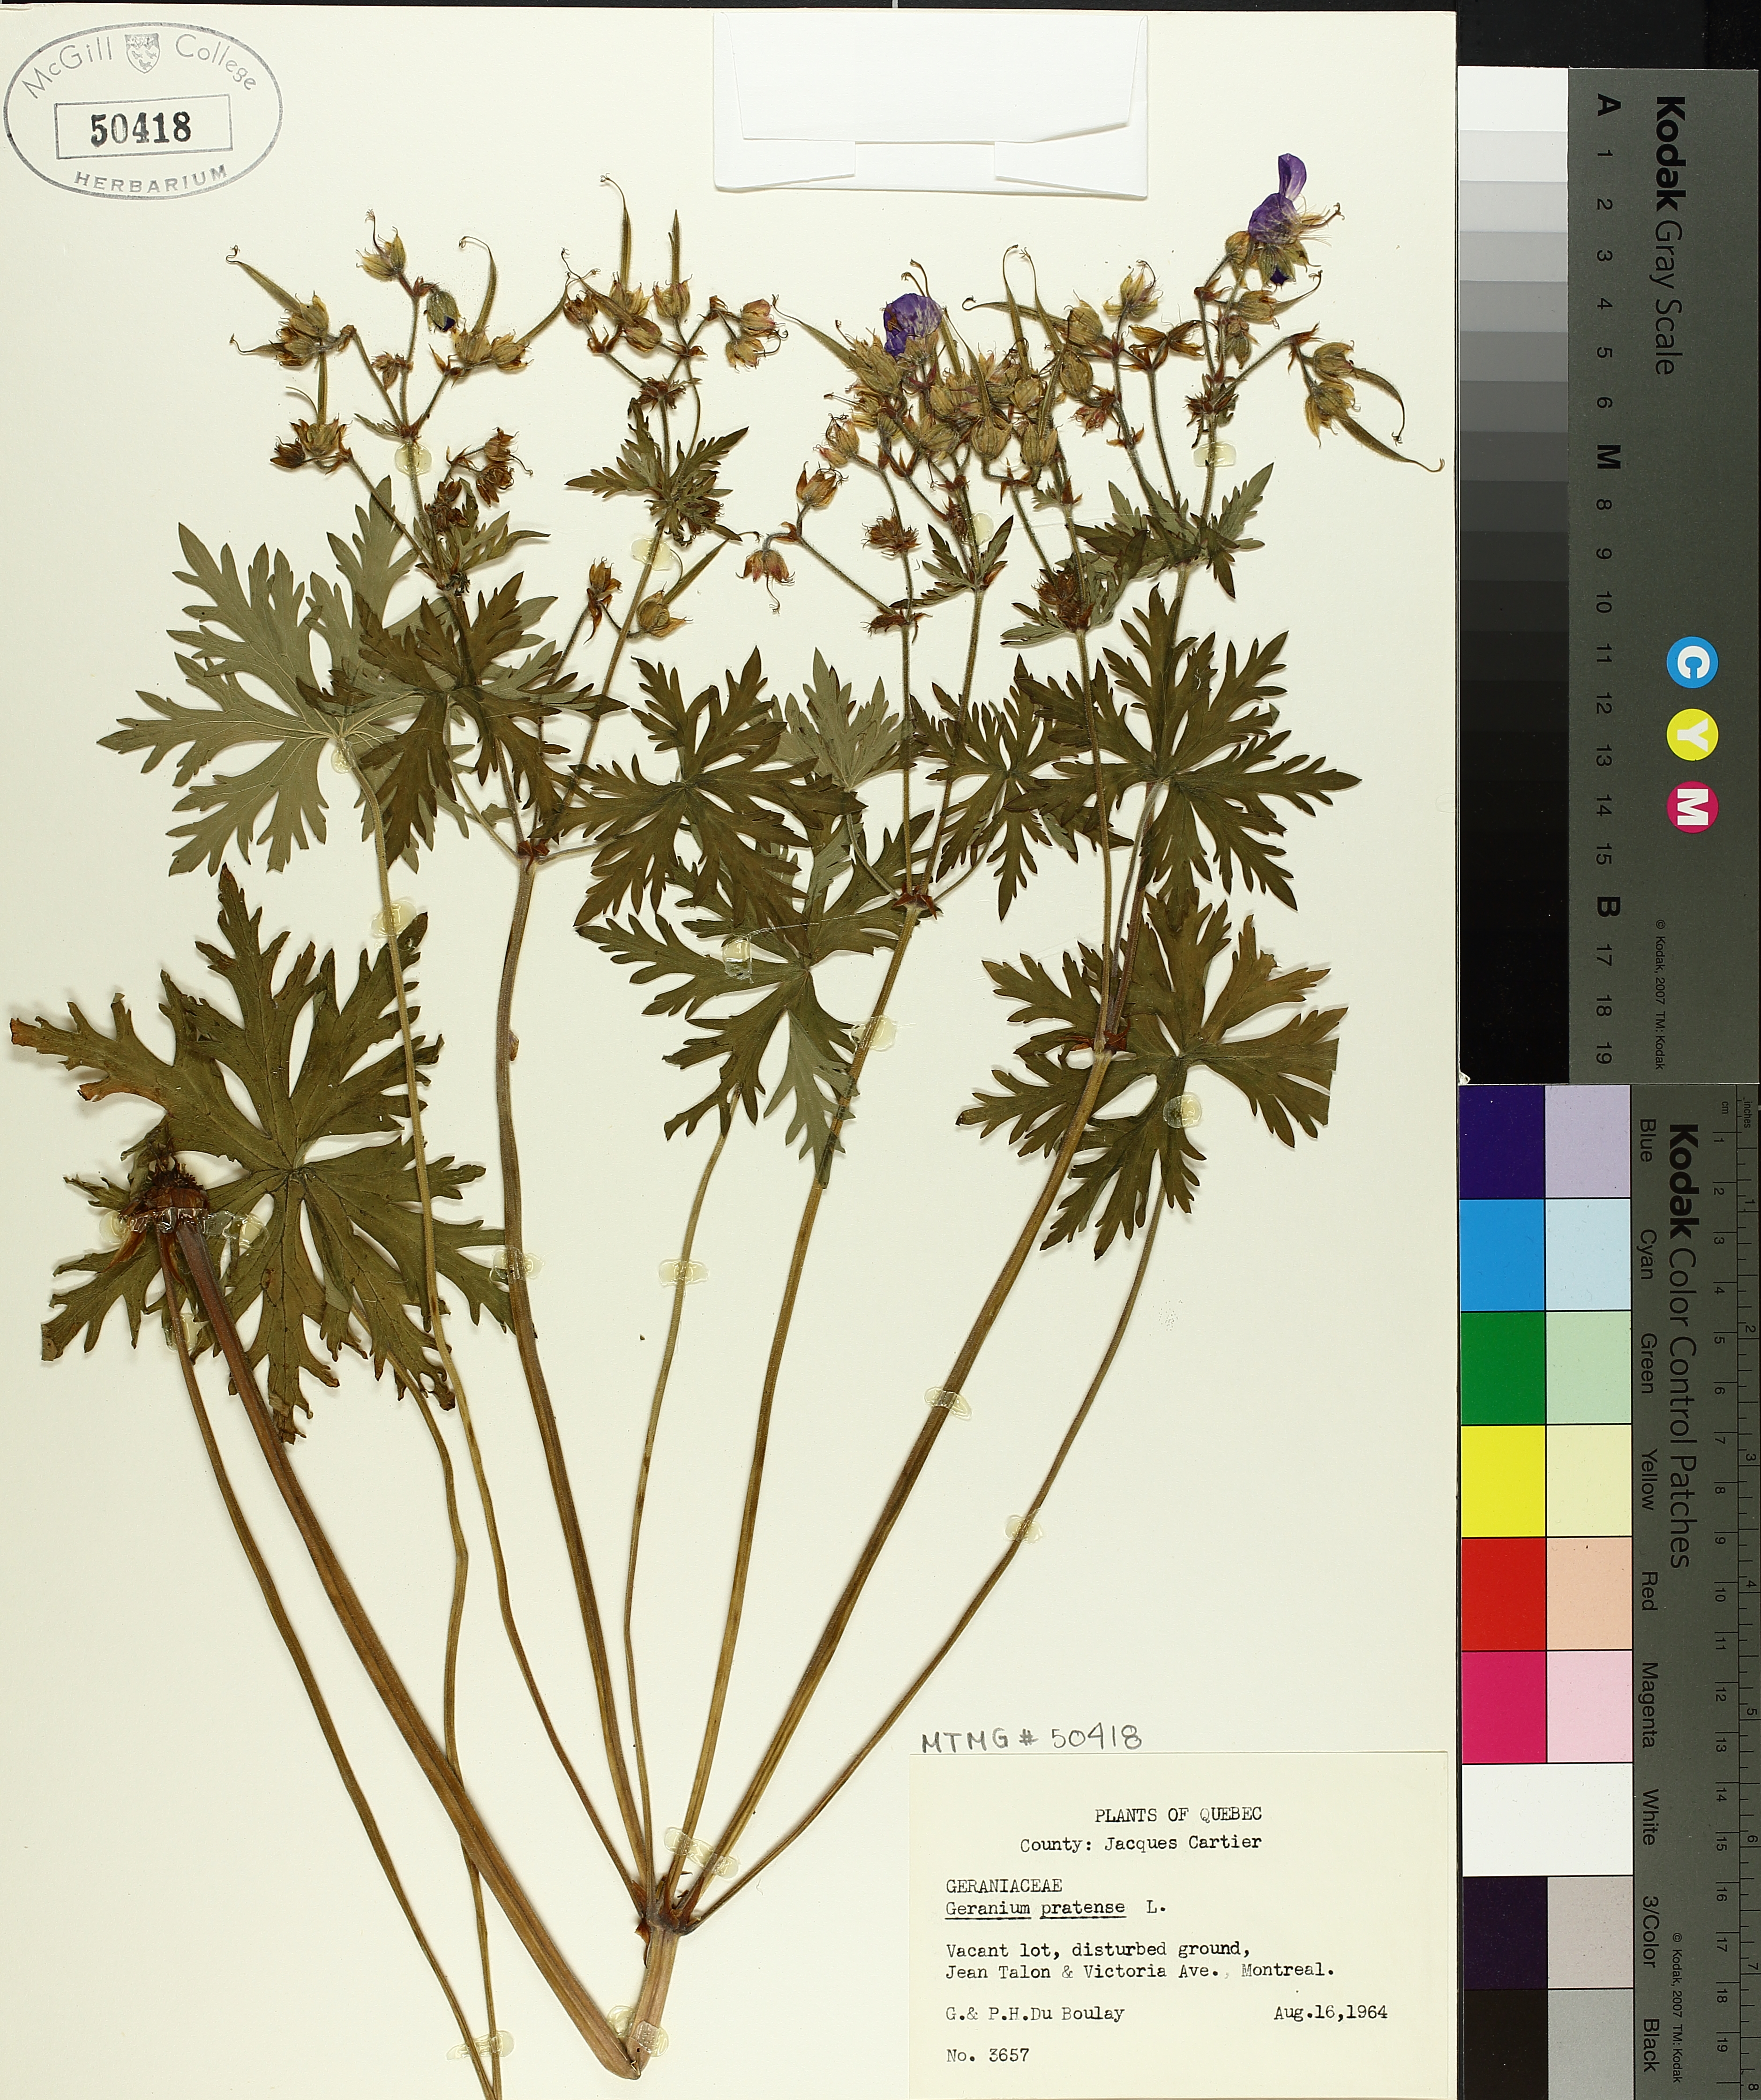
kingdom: Plantae
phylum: Tracheophyta
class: Magnoliopsida
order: Geraniales
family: Geraniaceae
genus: Geranium
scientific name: Geranium pratense
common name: Meadow crane's-bill
